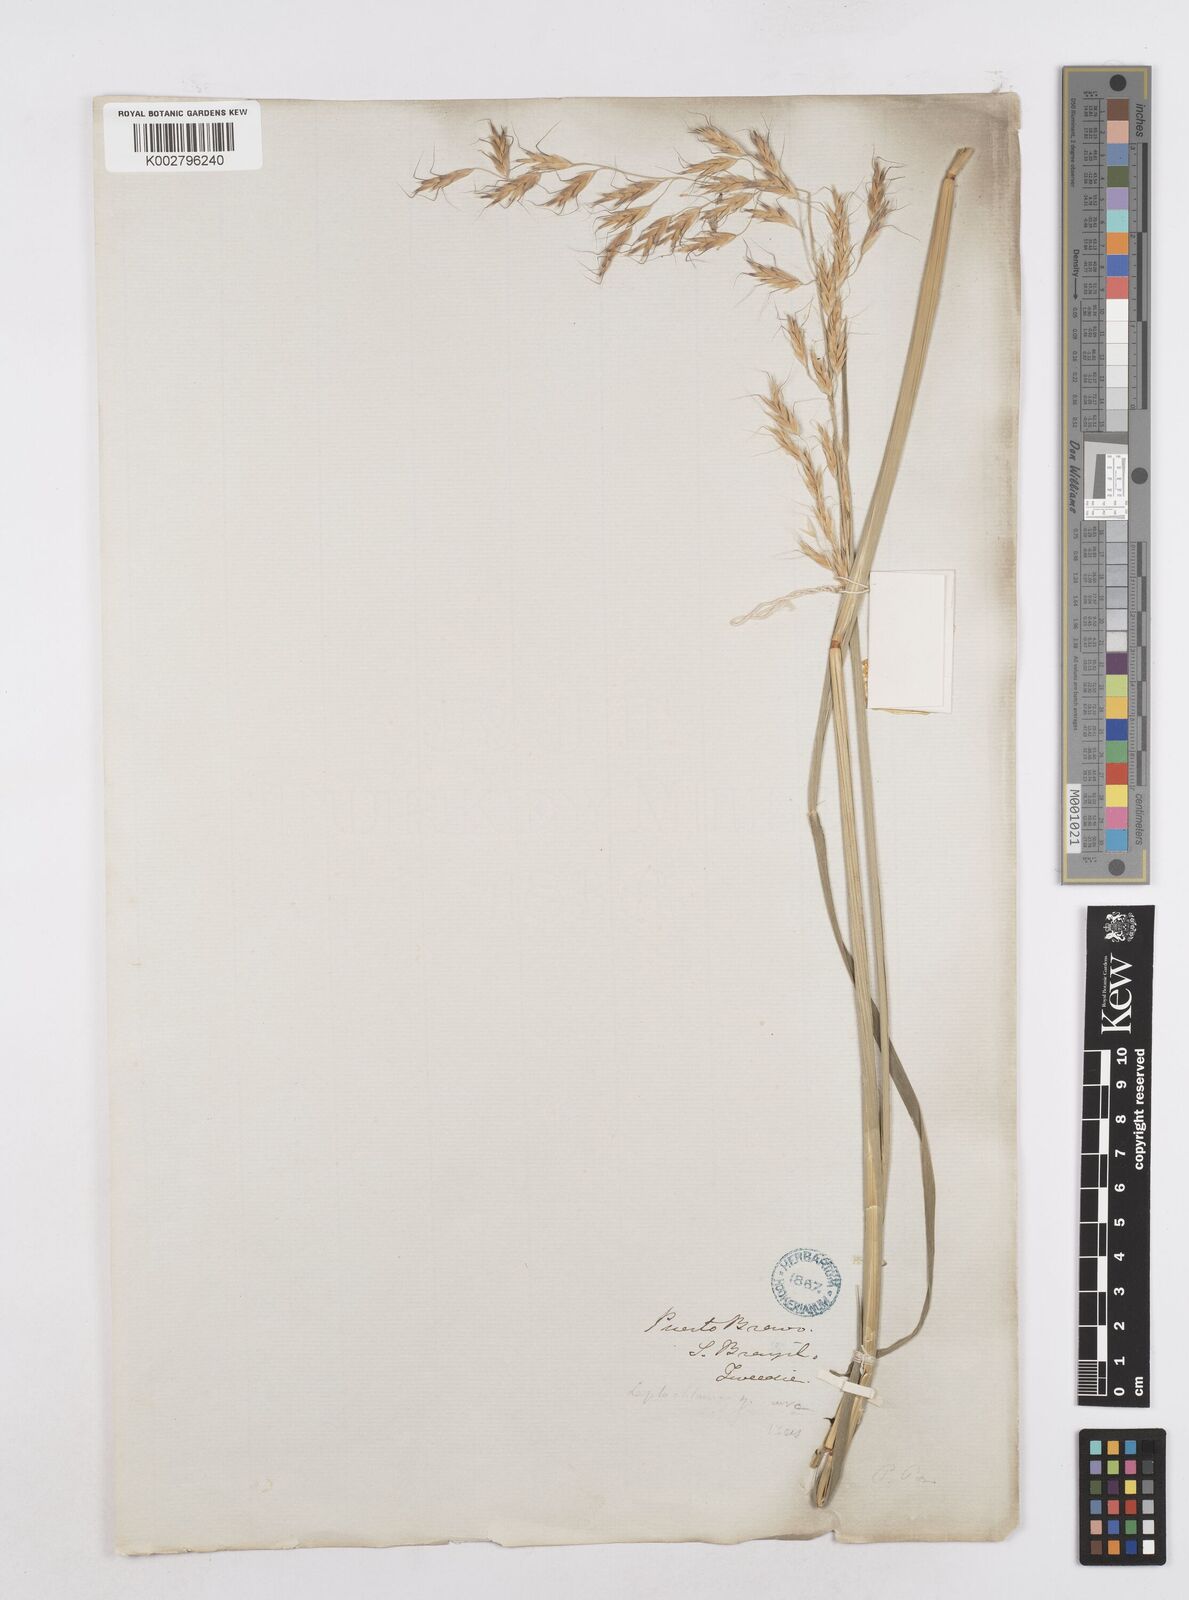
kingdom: Plantae
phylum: Tracheophyta
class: Liliopsida
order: Poales
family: Poaceae
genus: Helictotrichon
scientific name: Helictotrichon
